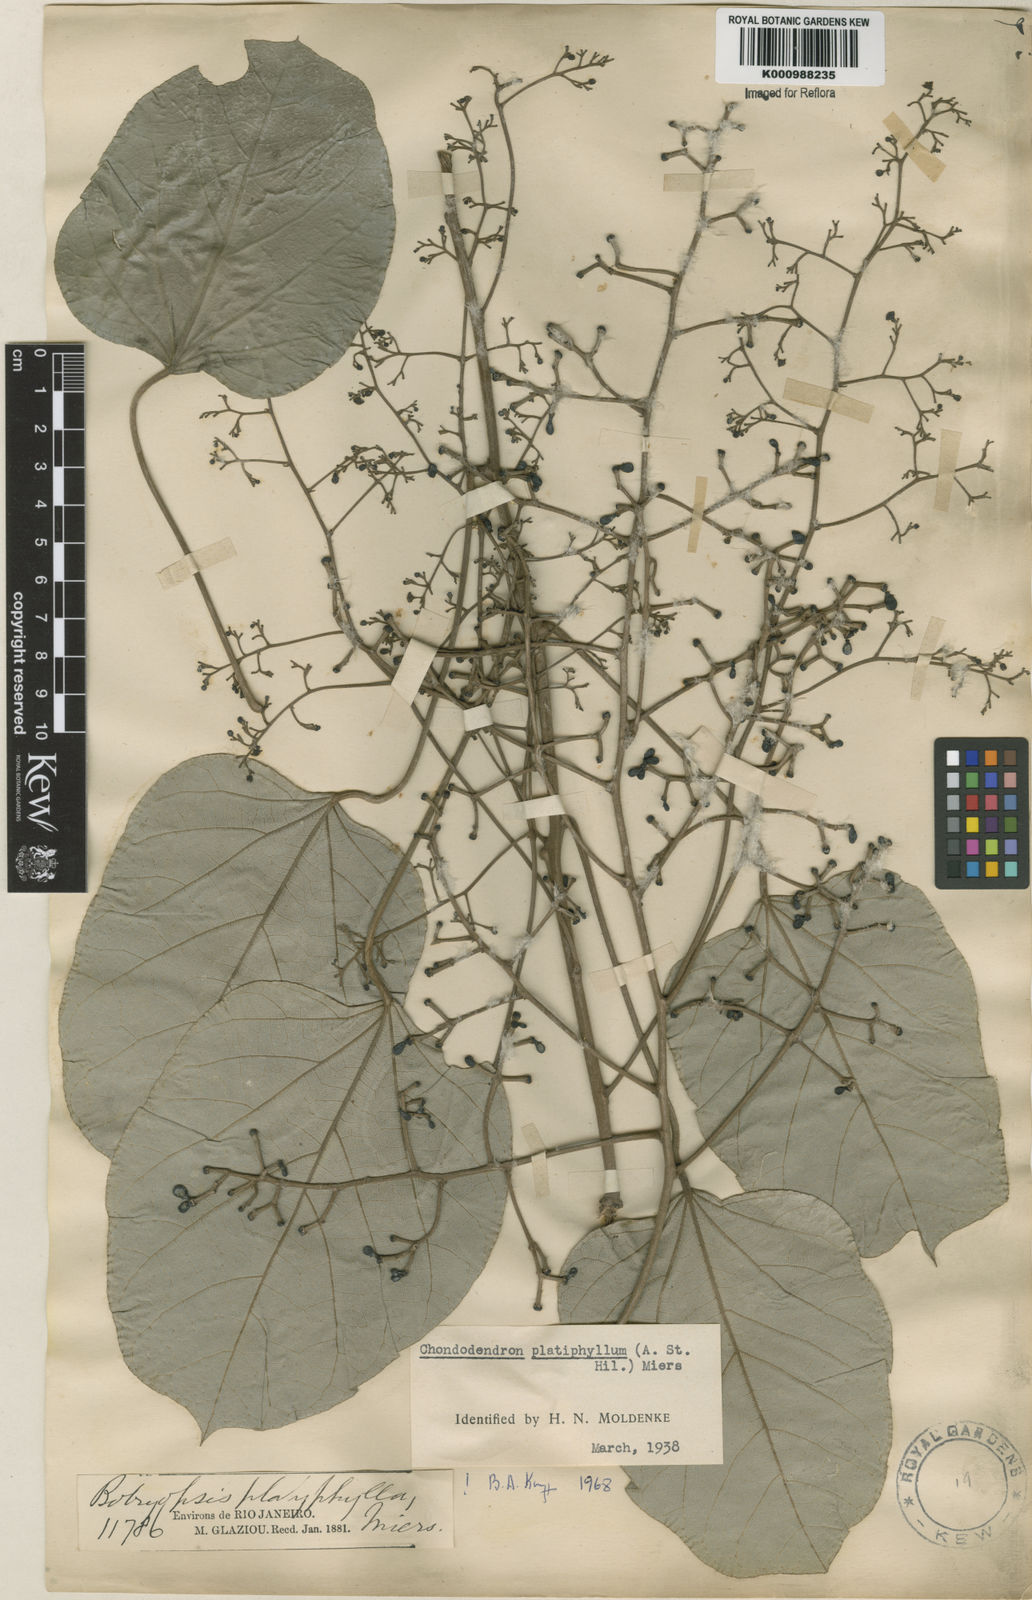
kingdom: Plantae
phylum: Tracheophyta
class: Magnoliopsida
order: Ranunculales
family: Menispermaceae
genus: Chondrodendron
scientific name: Chondrodendron platyphyllum
